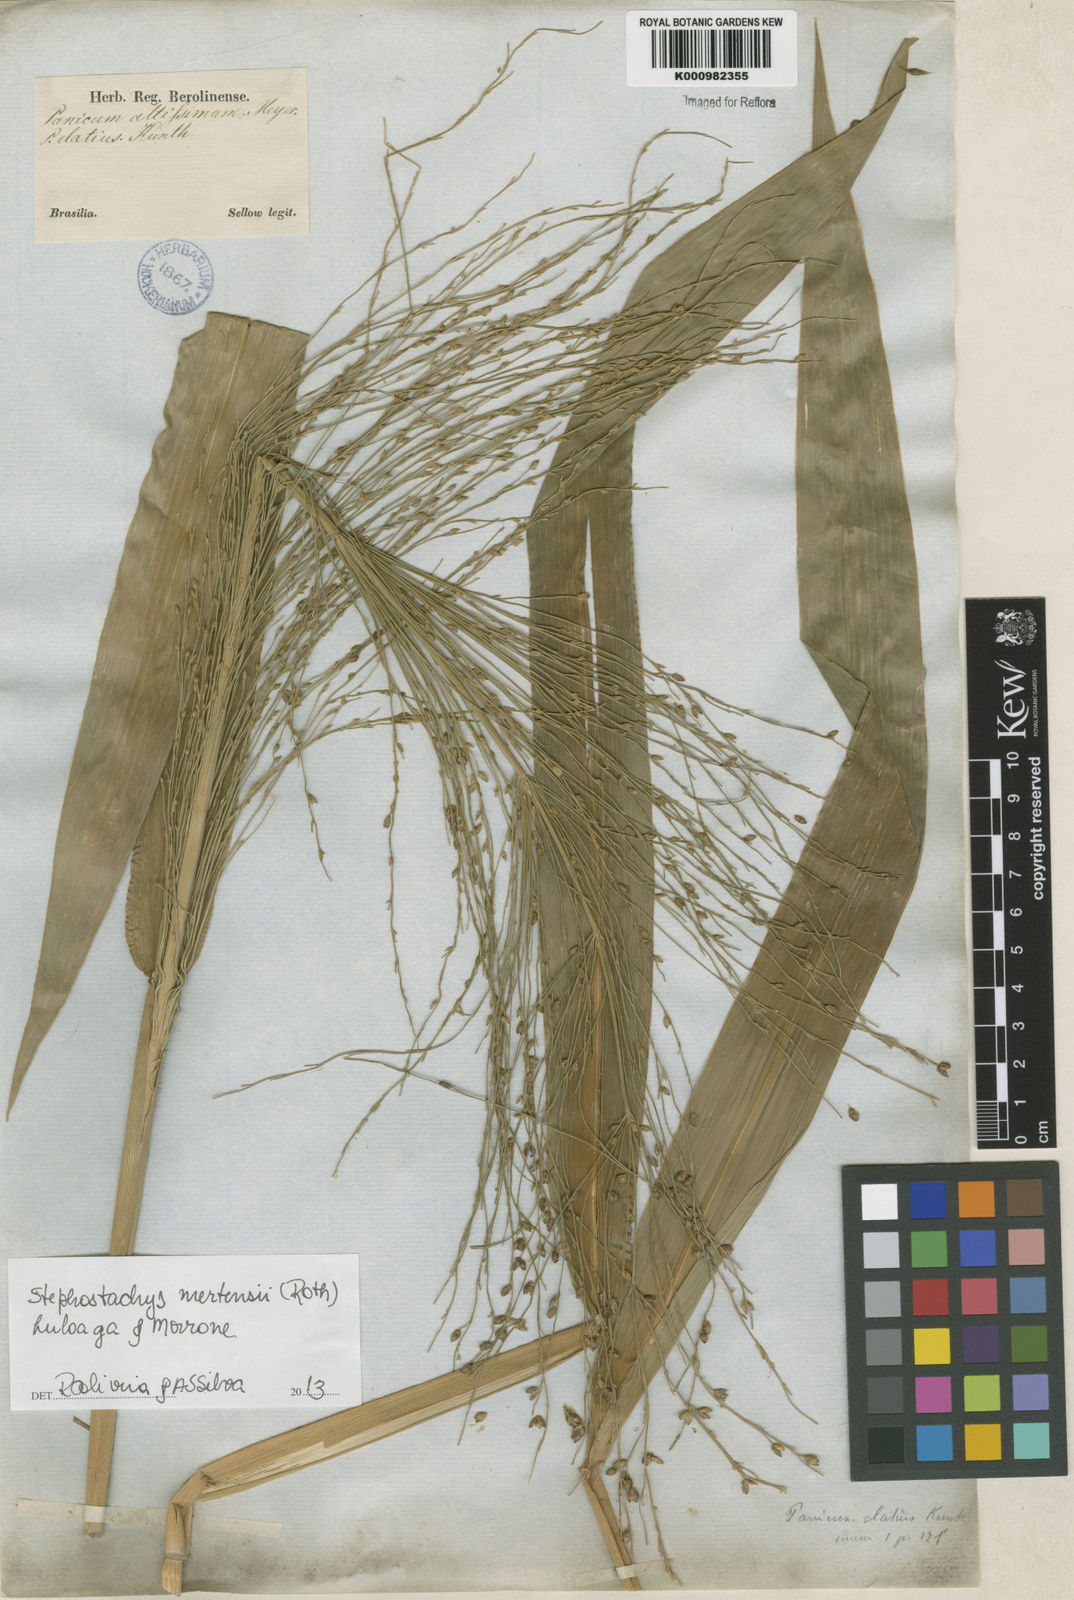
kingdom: Plantae
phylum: Tracheophyta
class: Liliopsida
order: Poales
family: Poaceae
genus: Stephostachys
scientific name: Stephostachys mertensii
